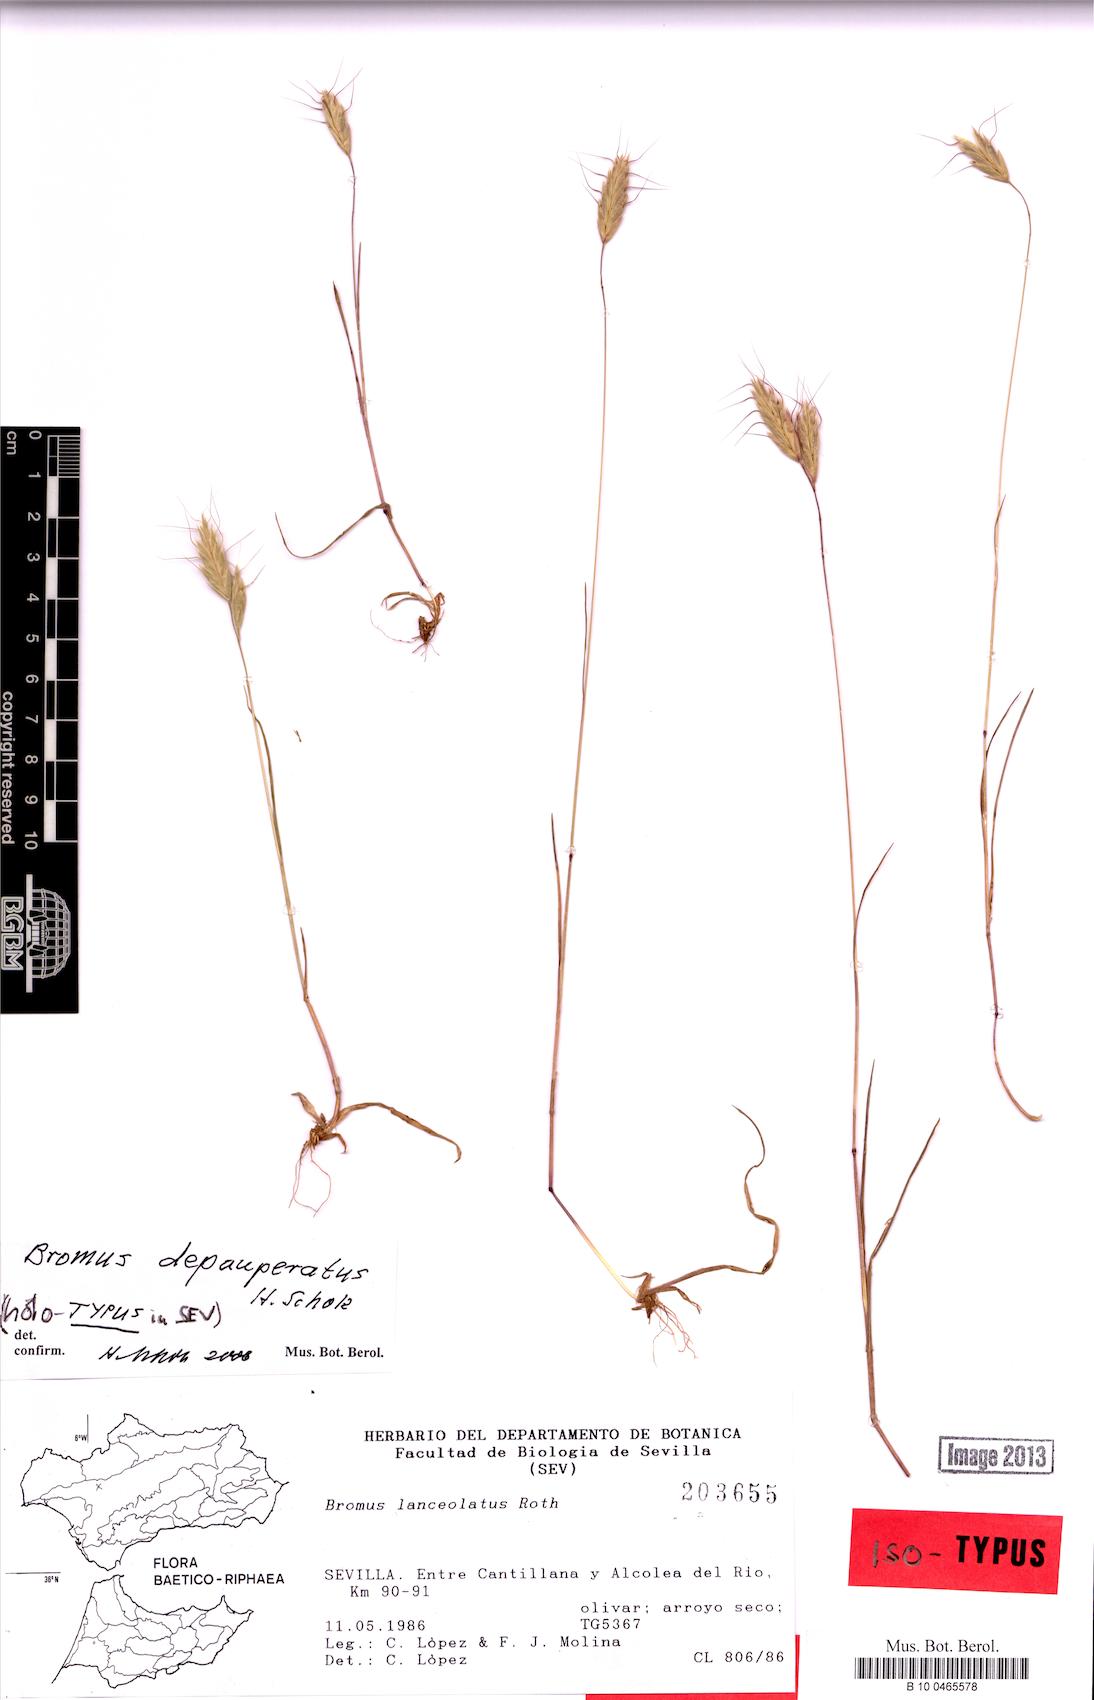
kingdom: Plantae
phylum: Tracheophyta
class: Liliopsida
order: Poales
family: Poaceae
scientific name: Poaceae
